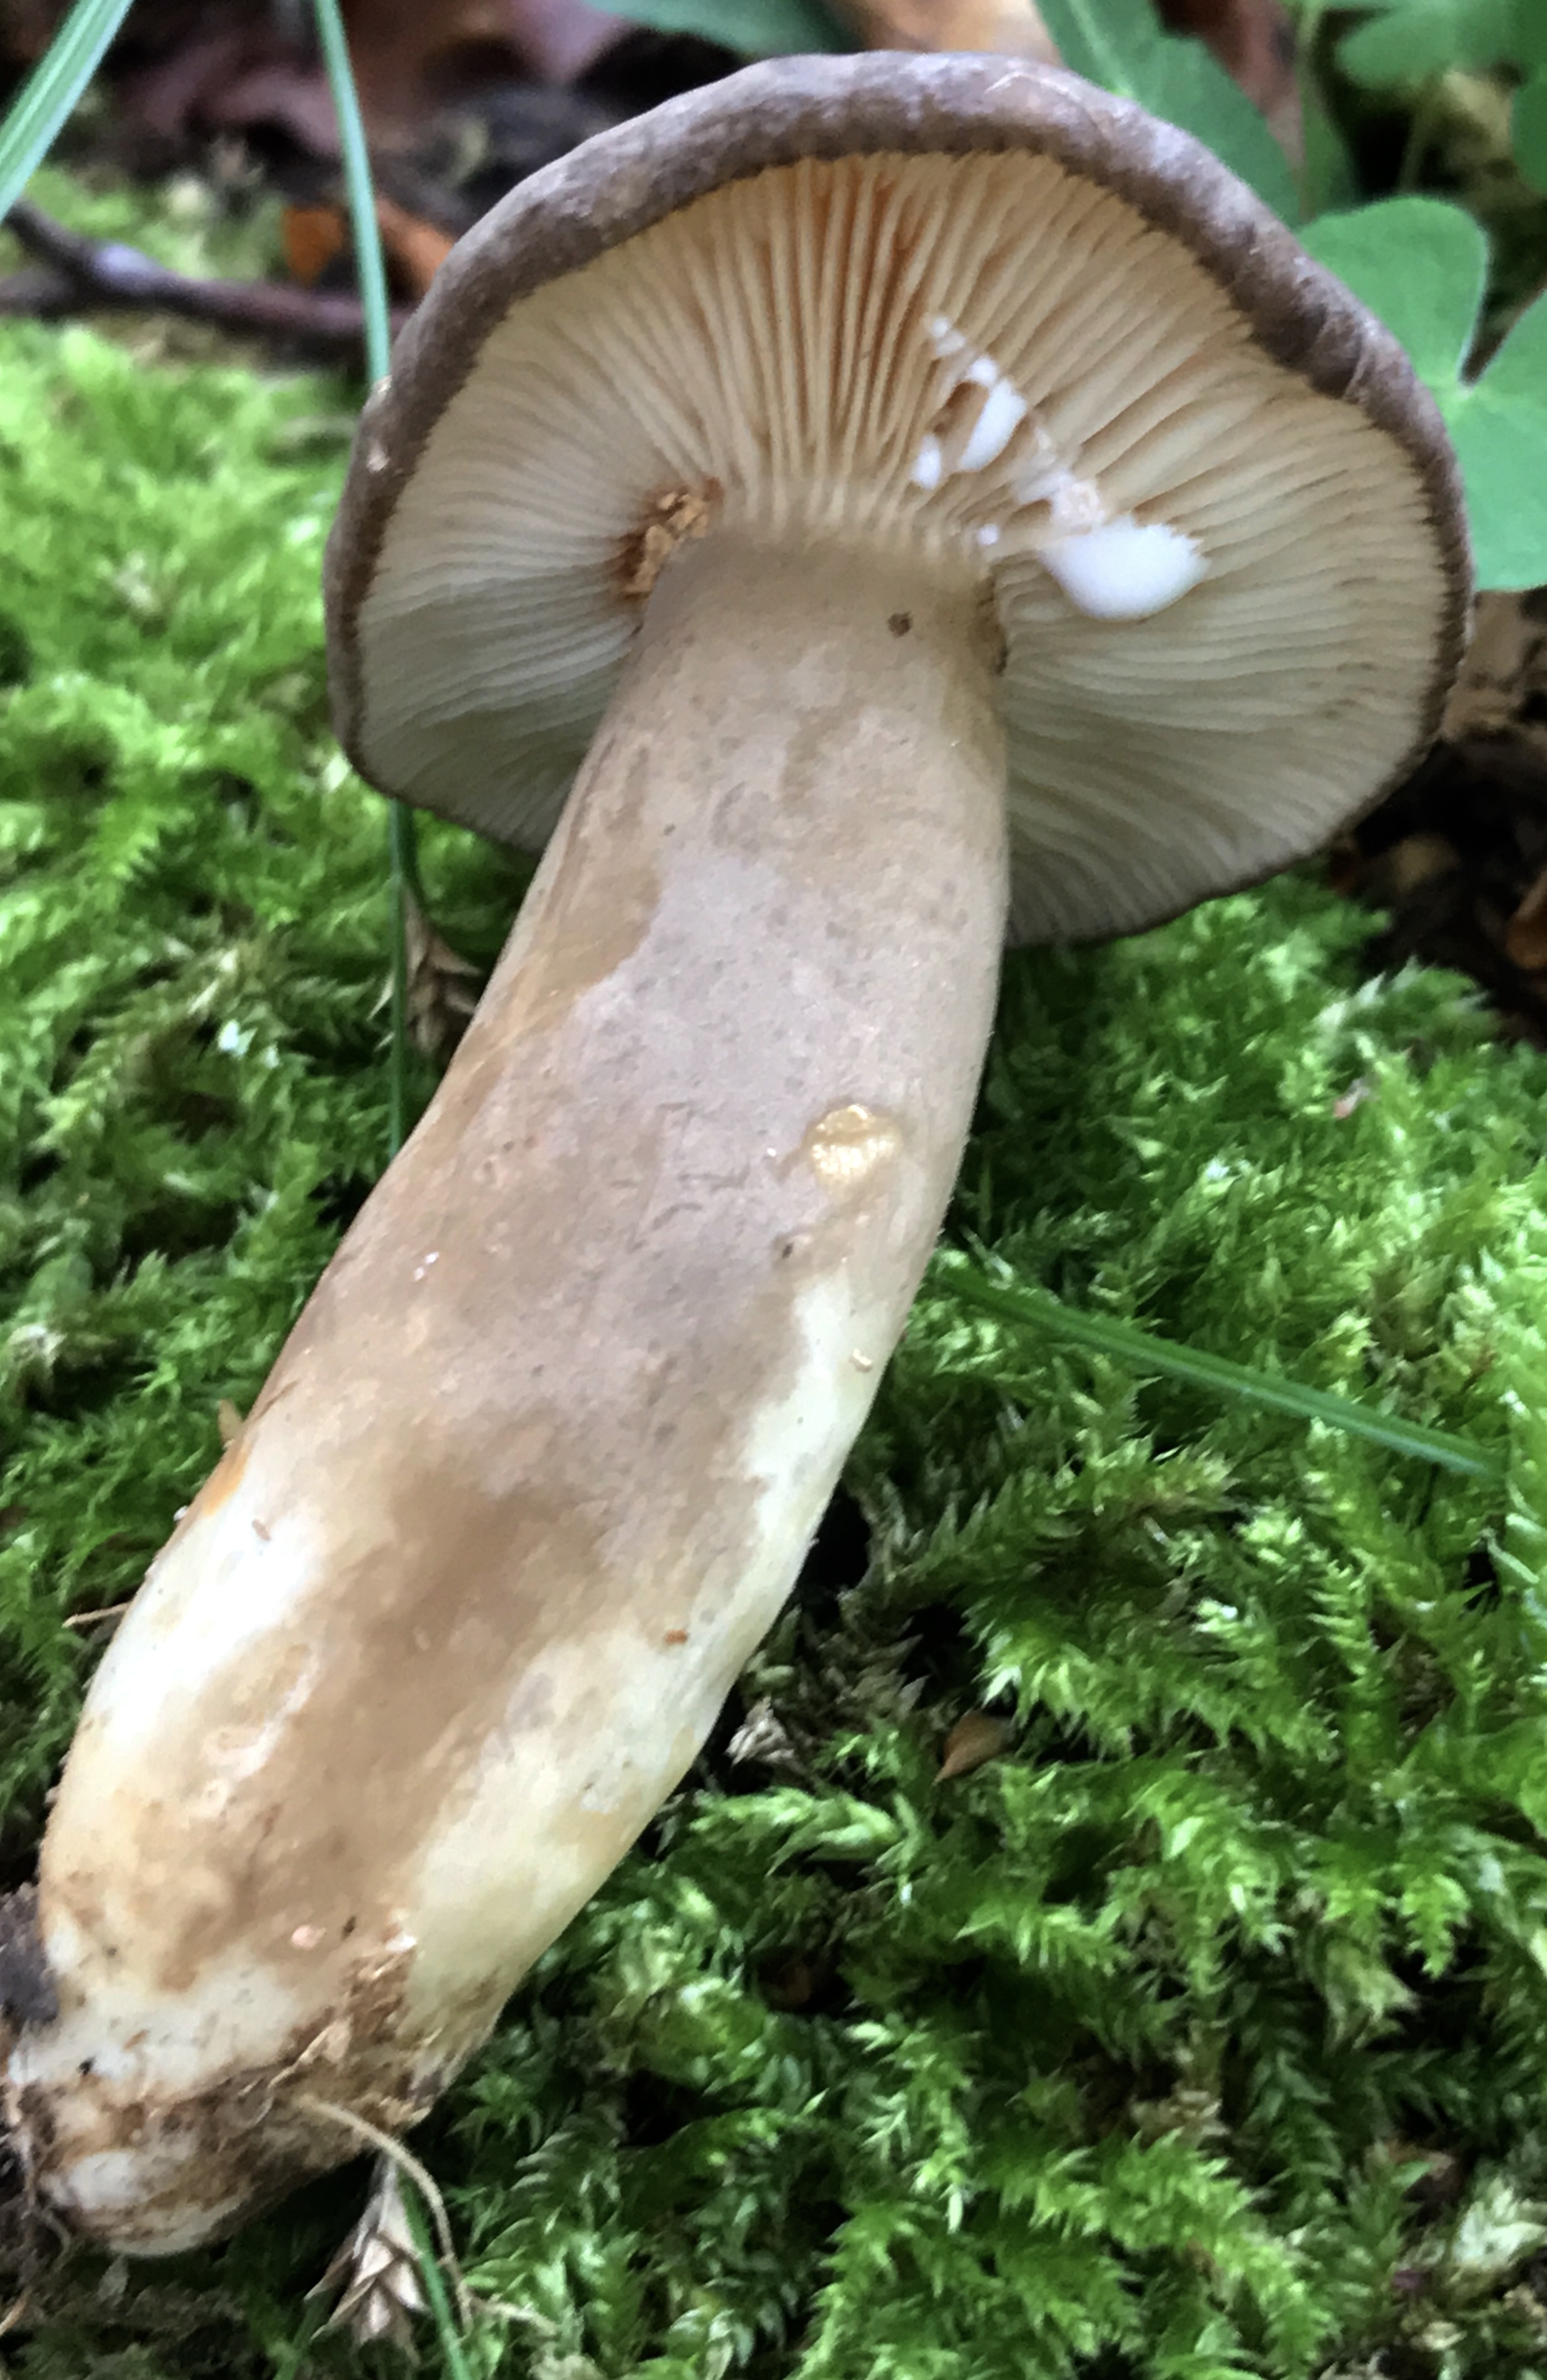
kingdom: Fungi
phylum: Basidiomycota
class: Agaricomycetes
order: Russulales
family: Russulaceae
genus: Lactarius
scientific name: Lactarius
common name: mælkehat
